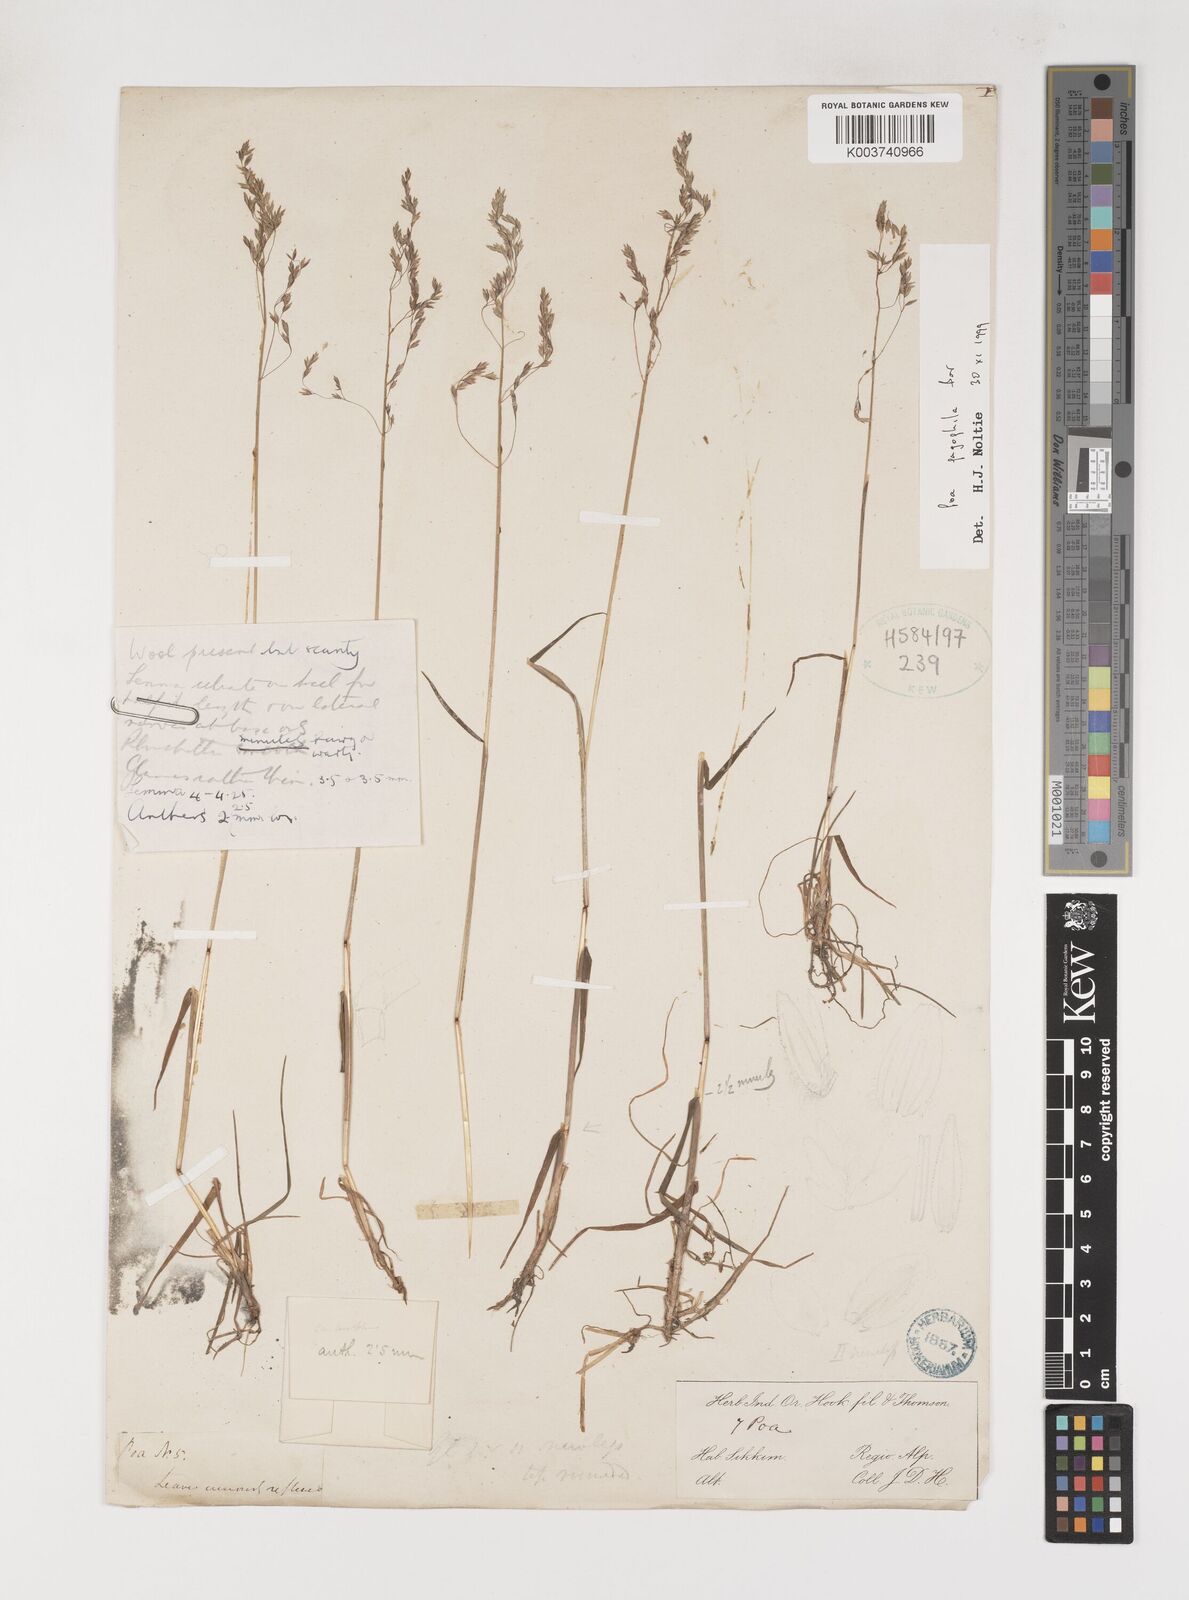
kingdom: Plantae
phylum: Tracheophyta
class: Liliopsida
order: Poales
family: Poaceae
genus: Poa
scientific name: Poa pagophila
